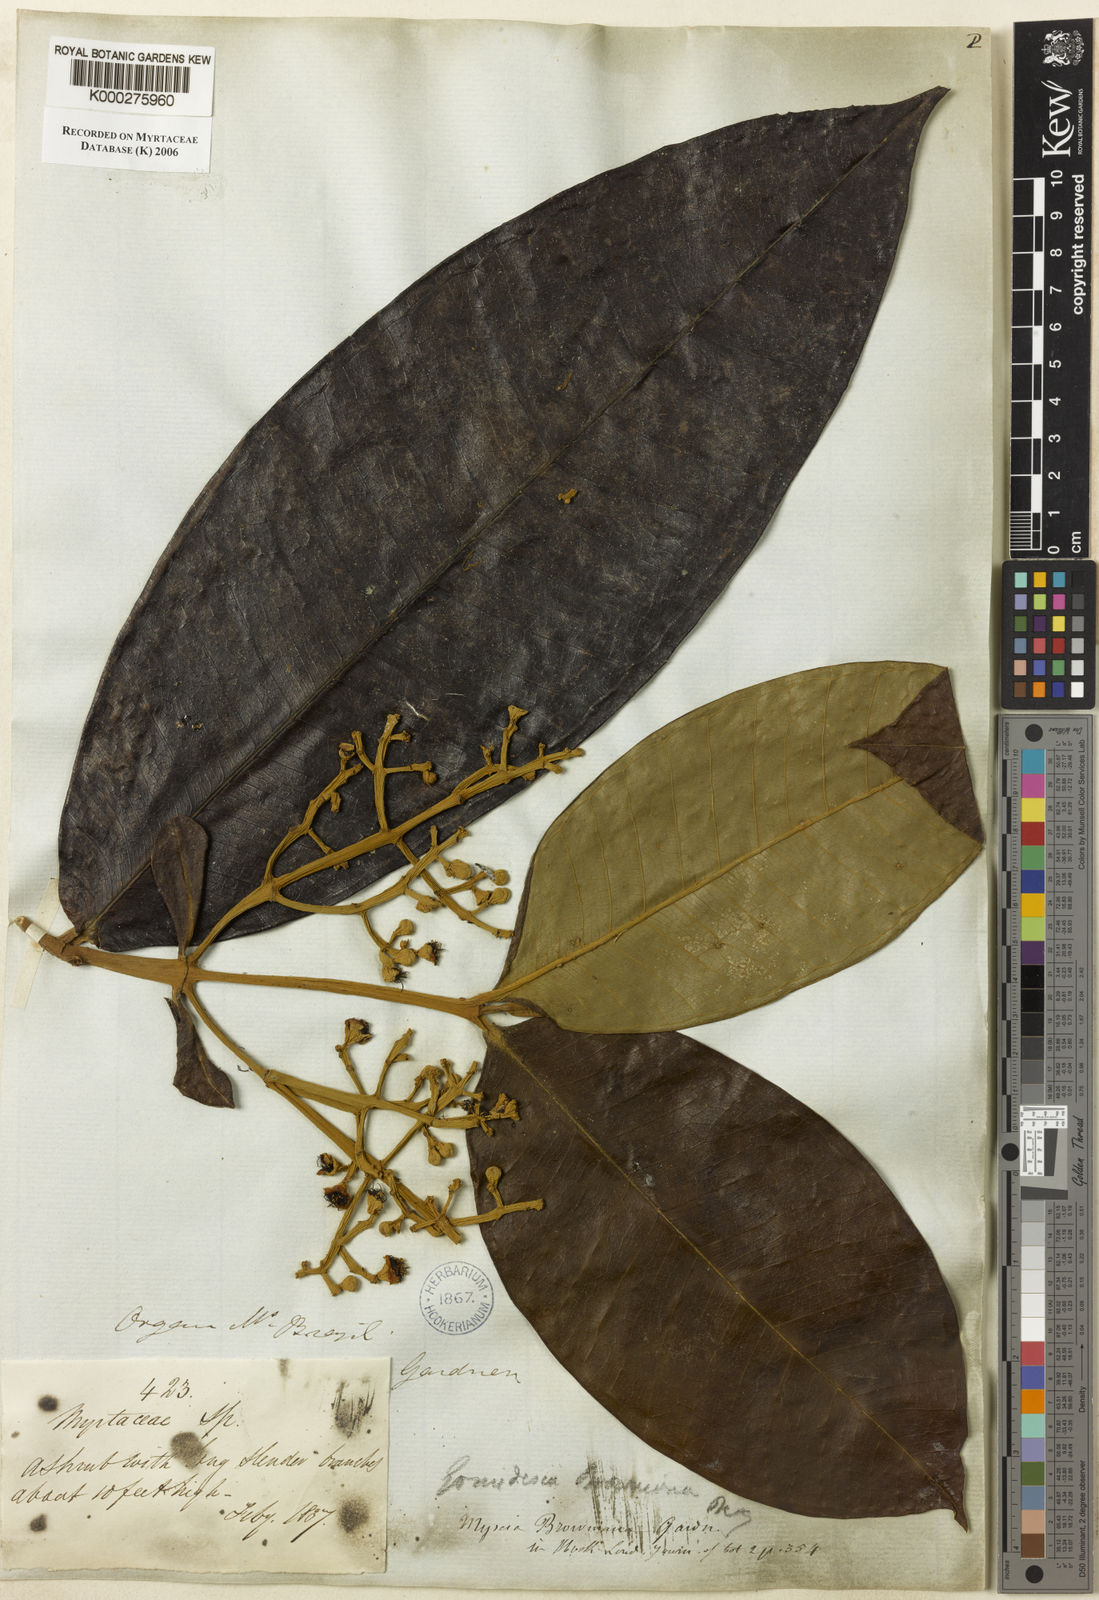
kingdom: Plantae
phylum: Tracheophyta
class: Magnoliopsida
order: Myrtales
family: Myrtaceae
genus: Myrcia
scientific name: Myrcia spectabilis
